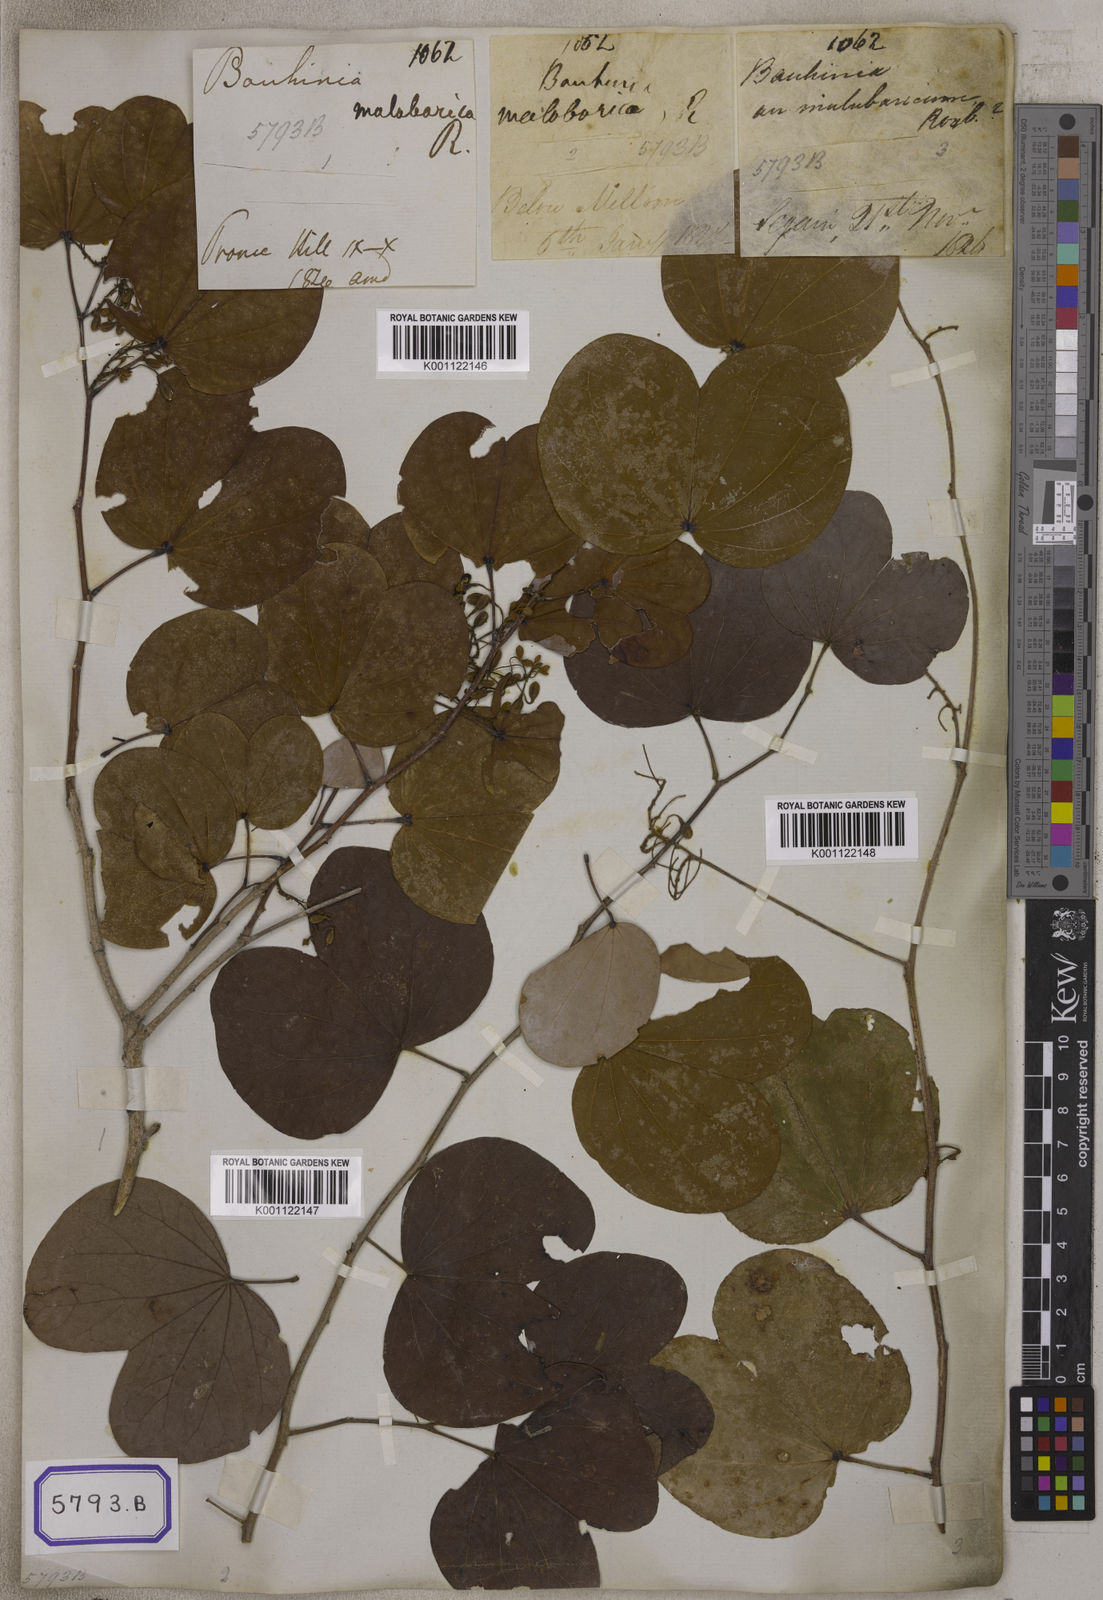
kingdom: Plantae
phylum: Tracheophyta
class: Magnoliopsida
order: Fabales
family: Fabaceae
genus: Piliostigma
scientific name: Piliostigma malabaricum
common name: Malabar bauhinia
